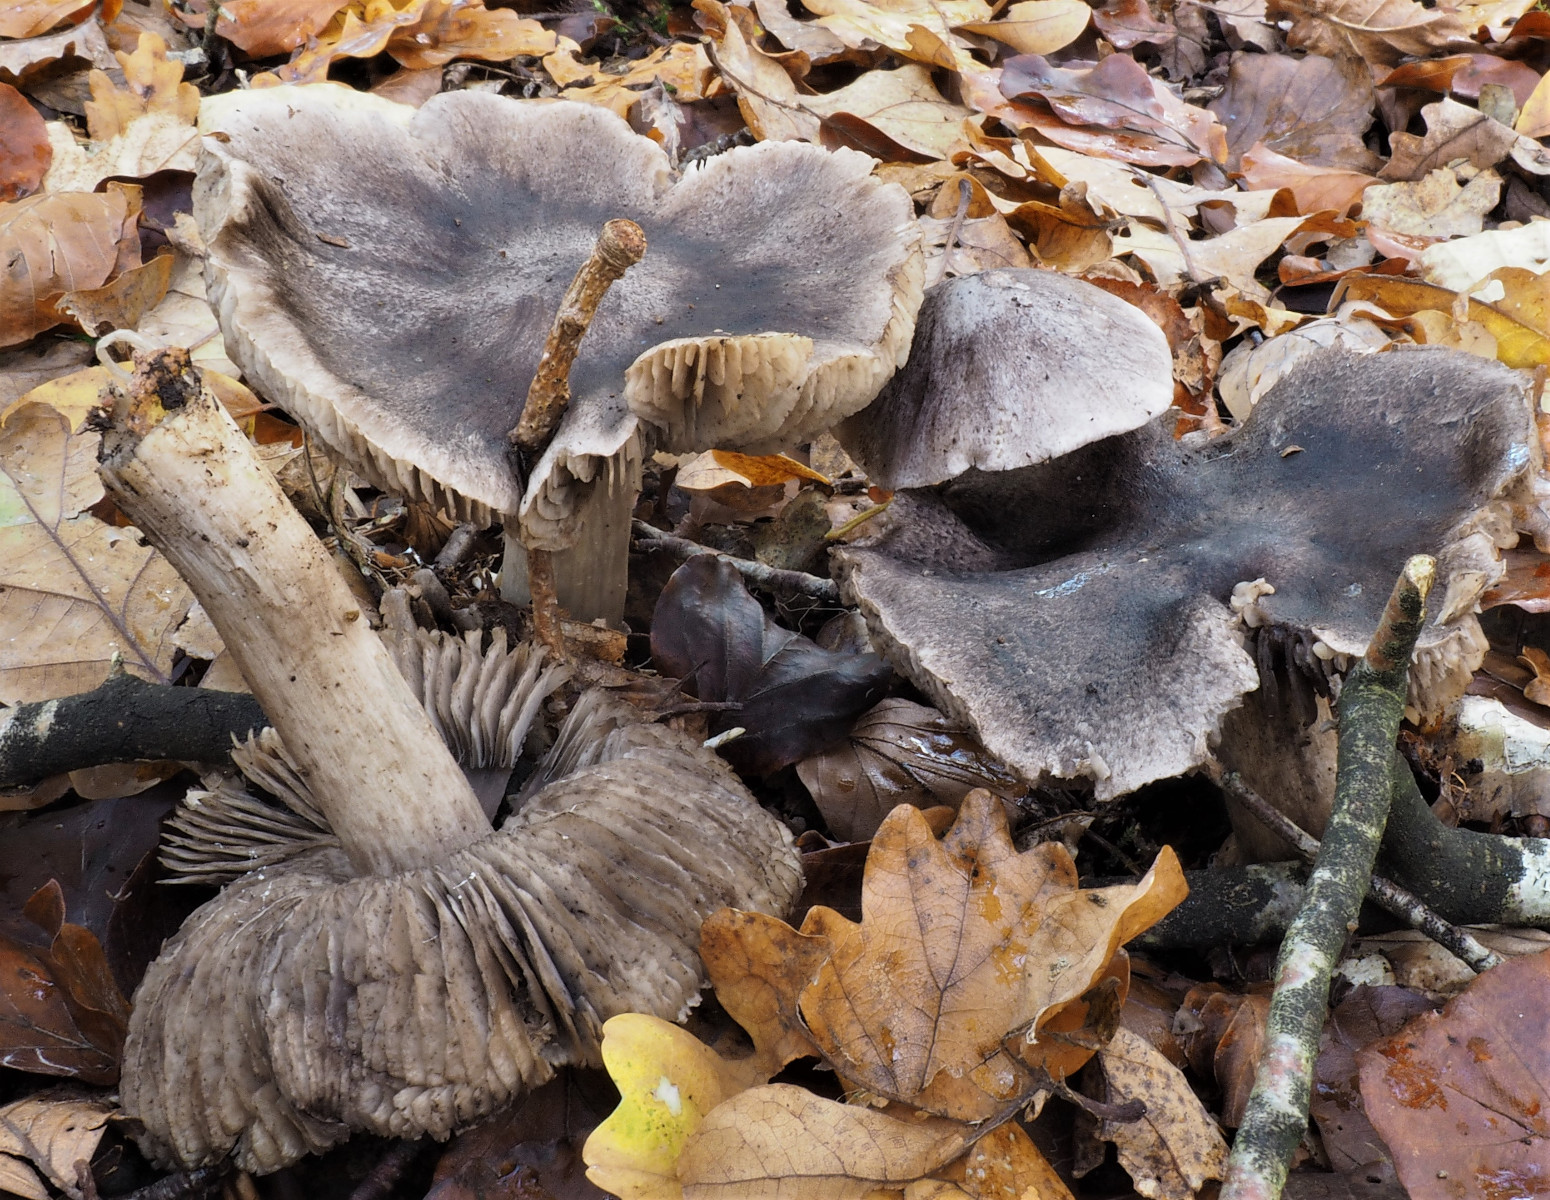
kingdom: Fungi
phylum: Basidiomycota
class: Agaricomycetes
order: Agaricales
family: Tricholomataceae
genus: Tricholoma
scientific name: Tricholoma sciodes
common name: stribet ridderhat
